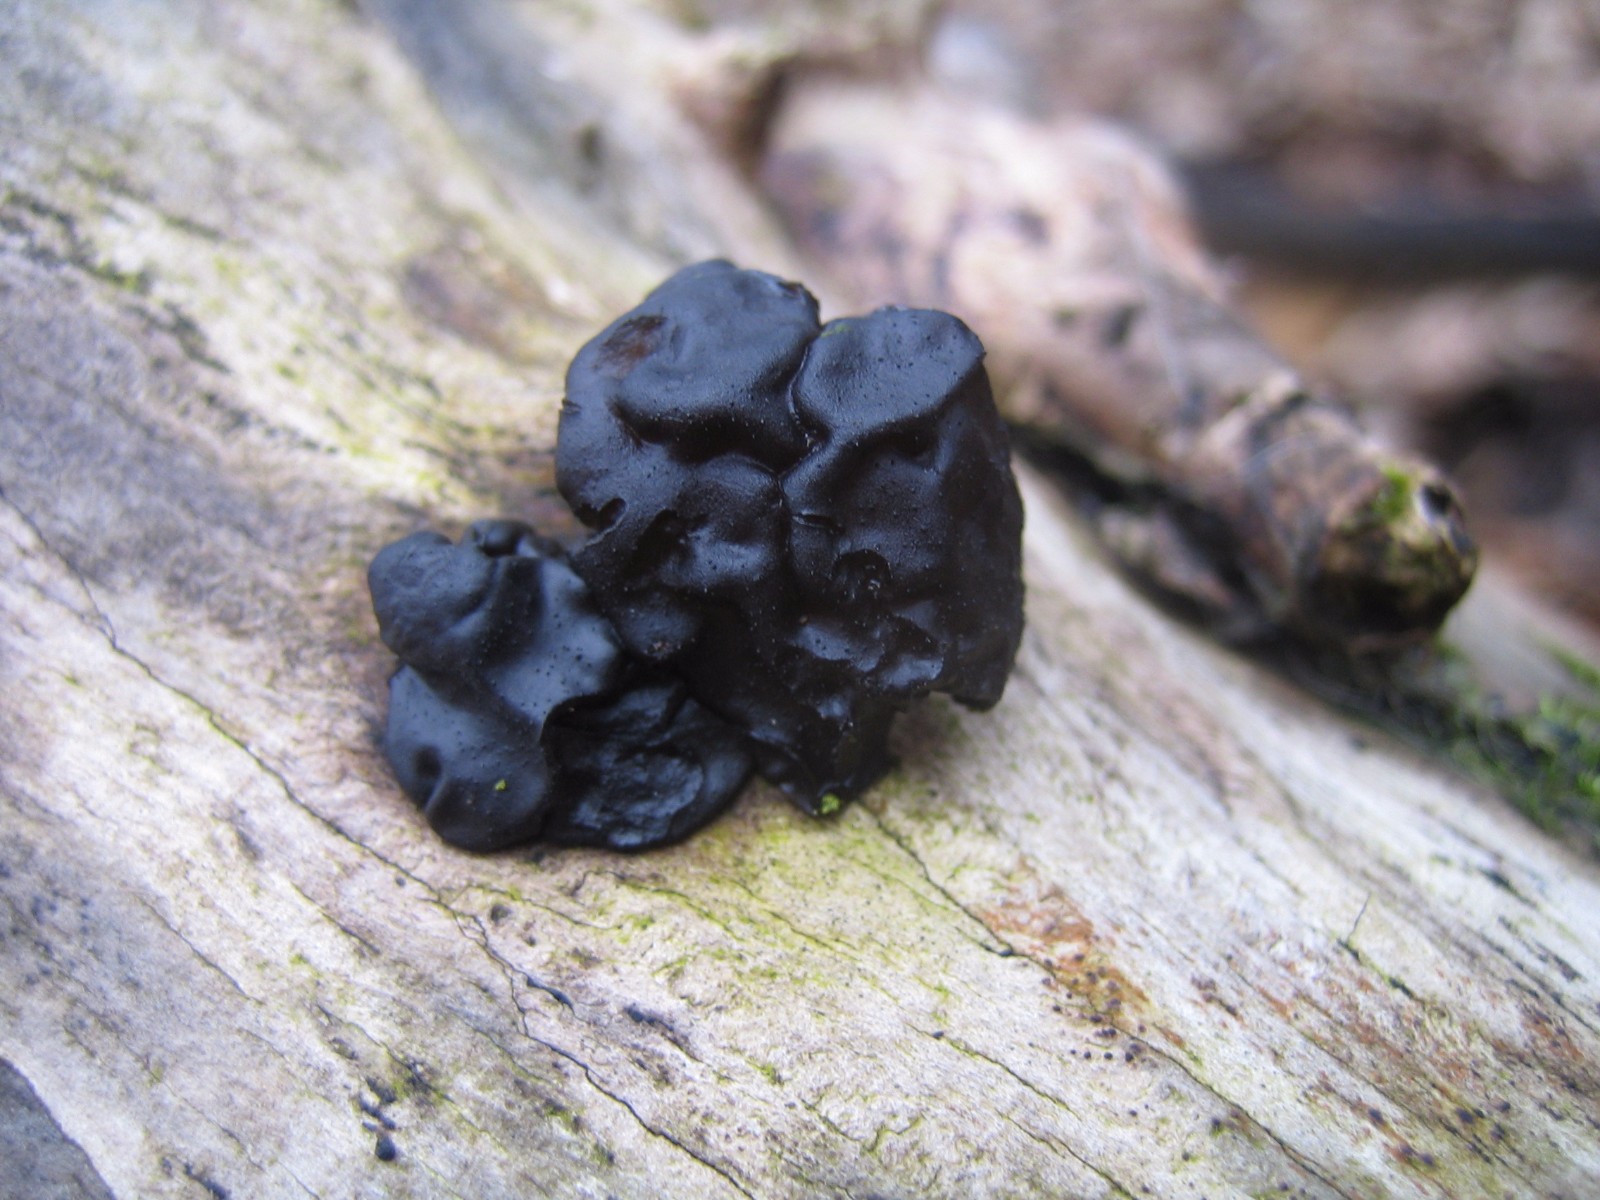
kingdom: Fungi
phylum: Basidiomycota
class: Agaricomycetes
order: Auriculariales
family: Auriculariaceae
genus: Exidia
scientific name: Exidia glandulosa
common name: ege-bævretop
